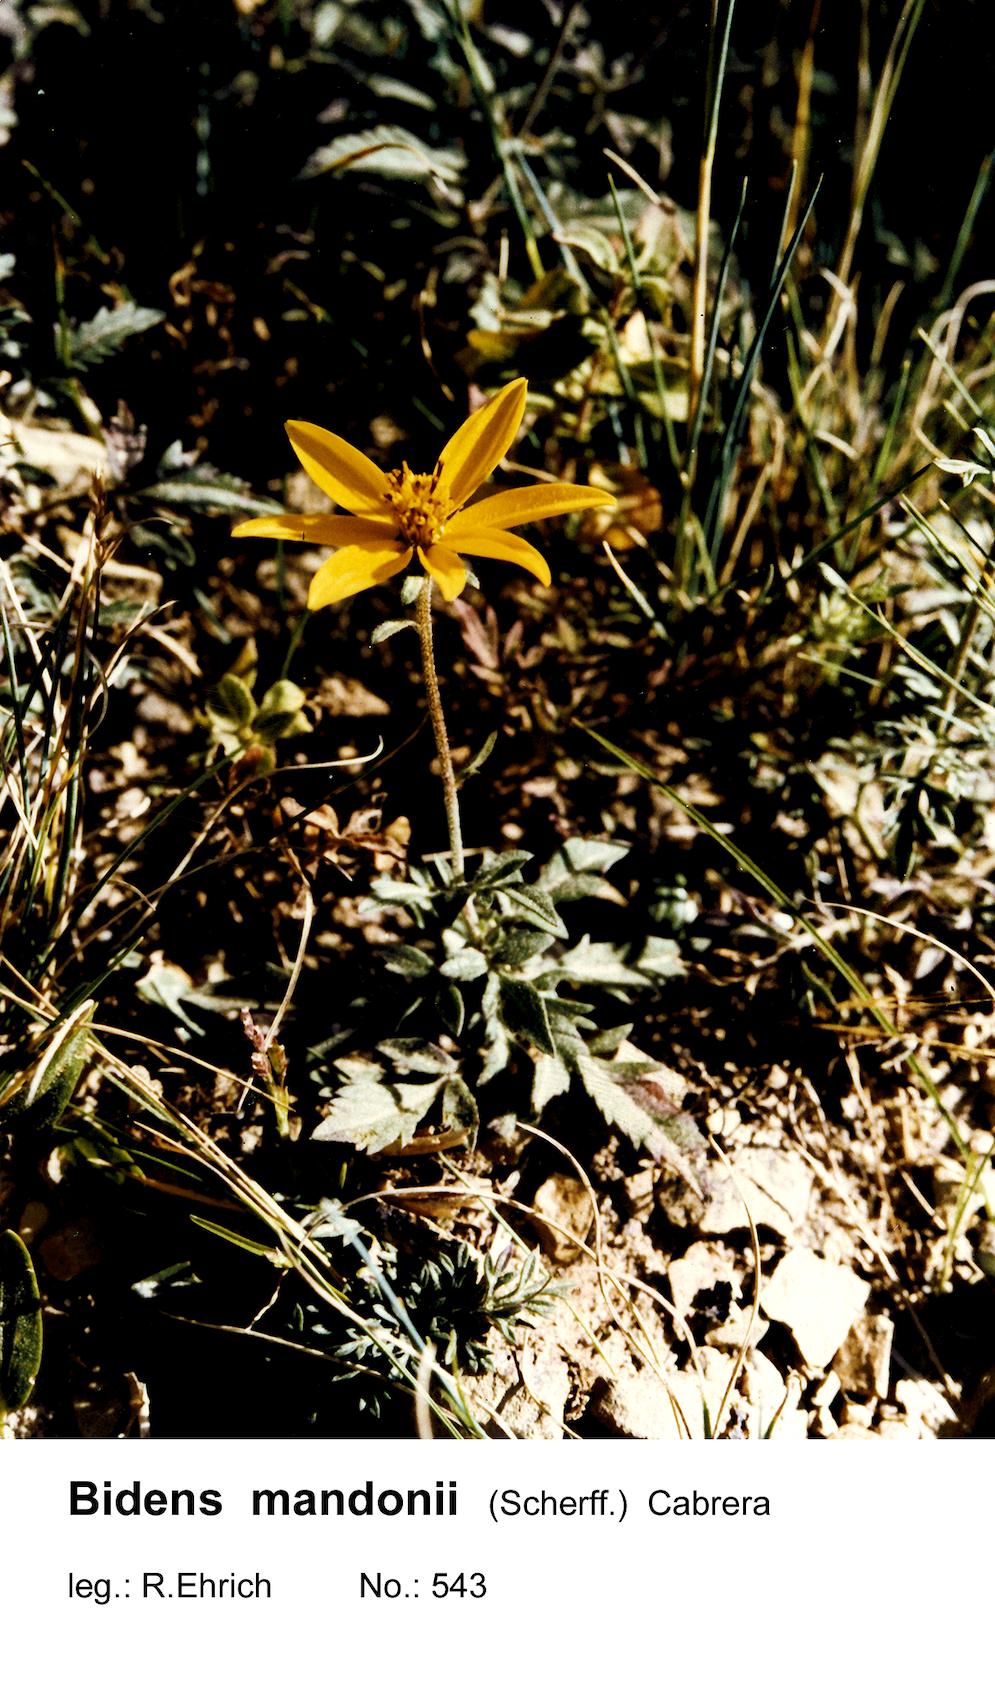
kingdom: Plantae
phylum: Tracheophyta
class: Magnoliopsida
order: Asterales
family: Asteraceae
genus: Bidens
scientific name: Bidens mandonii
